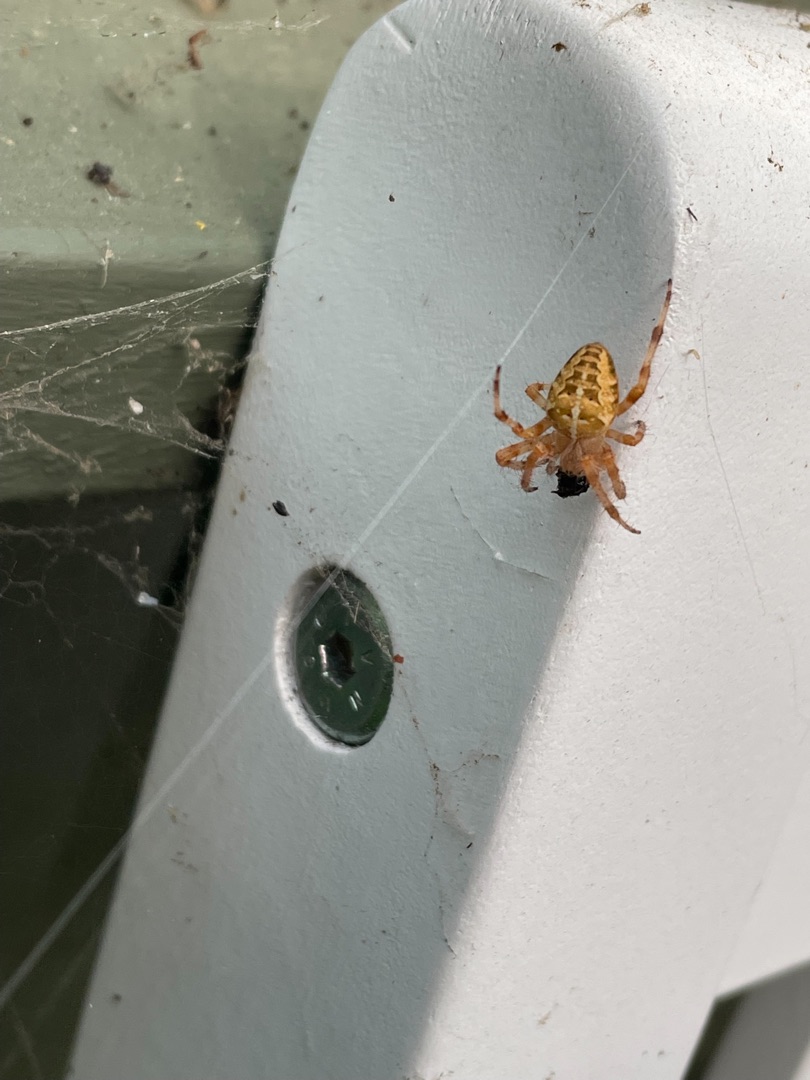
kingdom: Animalia
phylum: Arthropoda
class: Arachnida
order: Araneae
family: Araneidae
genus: Araneus
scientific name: Araneus diadematus
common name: Korsedderkop
